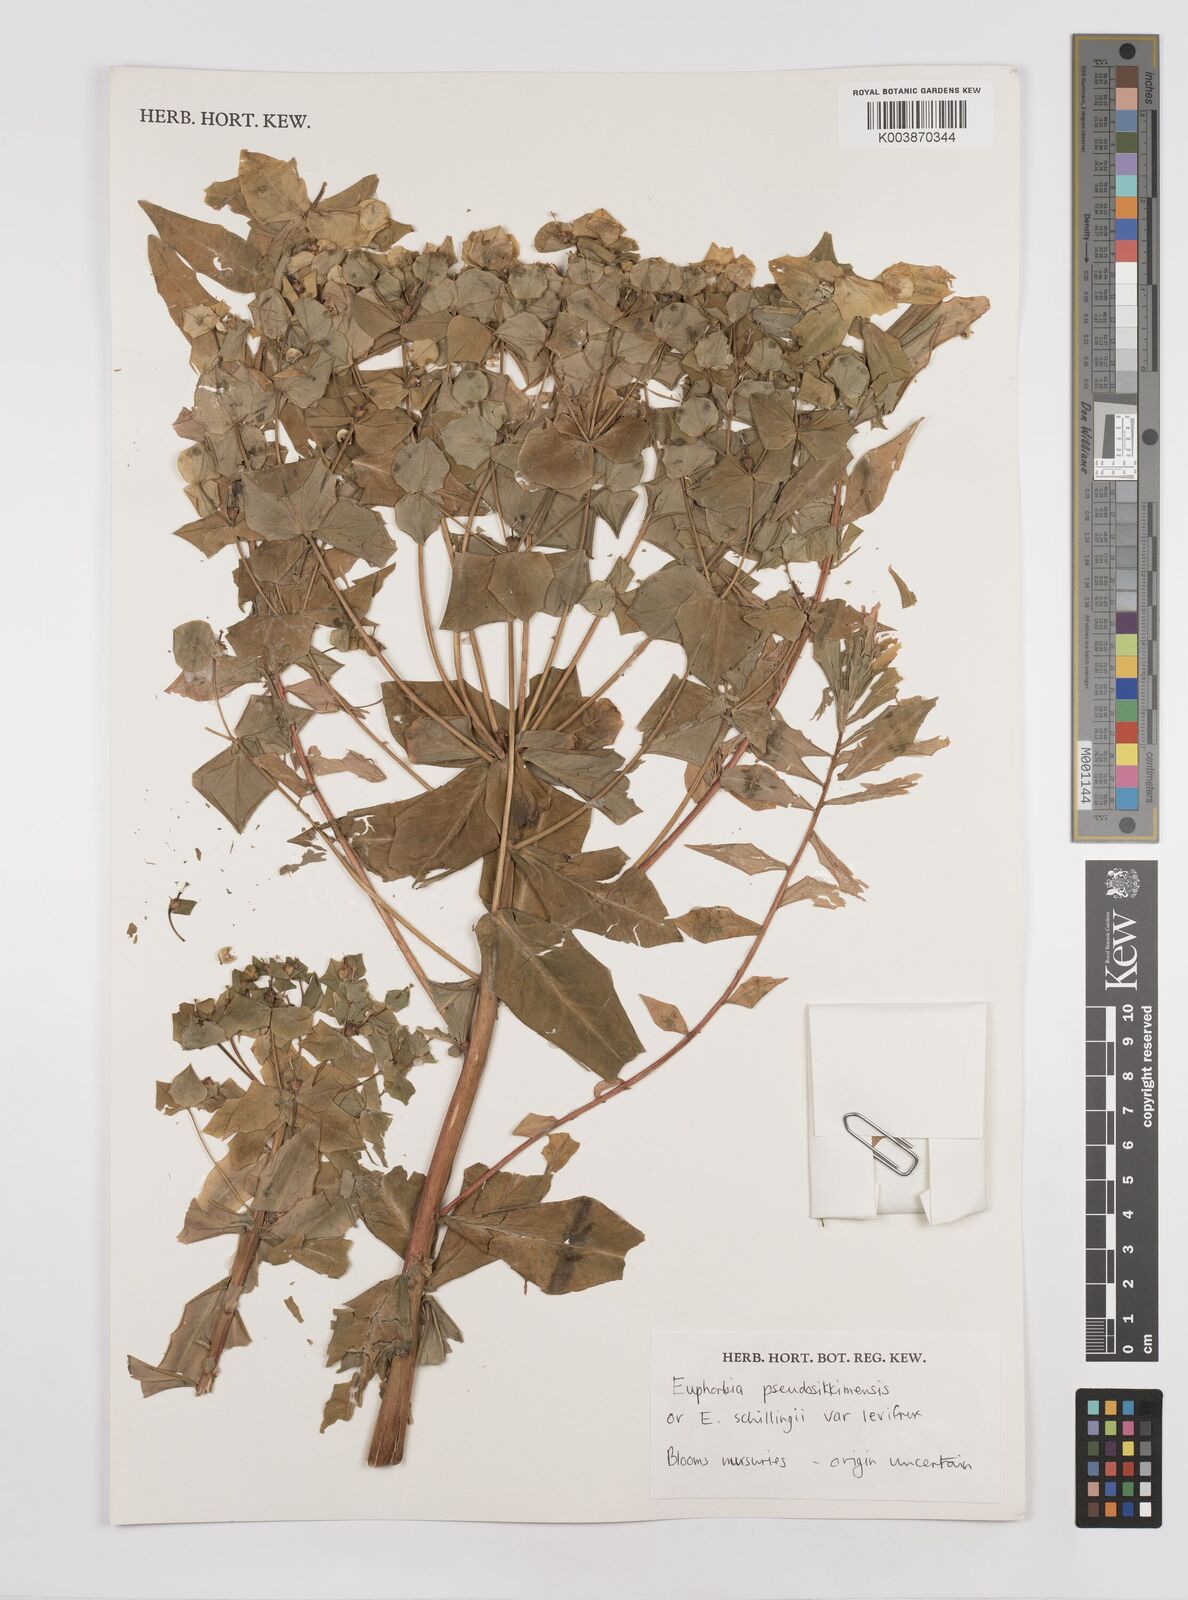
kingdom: Plantae
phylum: Tracheophyta
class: Magnoliopsida
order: Malpighiales
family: Euphorbiaceae
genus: Euphorbia
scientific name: Euphorbia pseudosikkimensis
